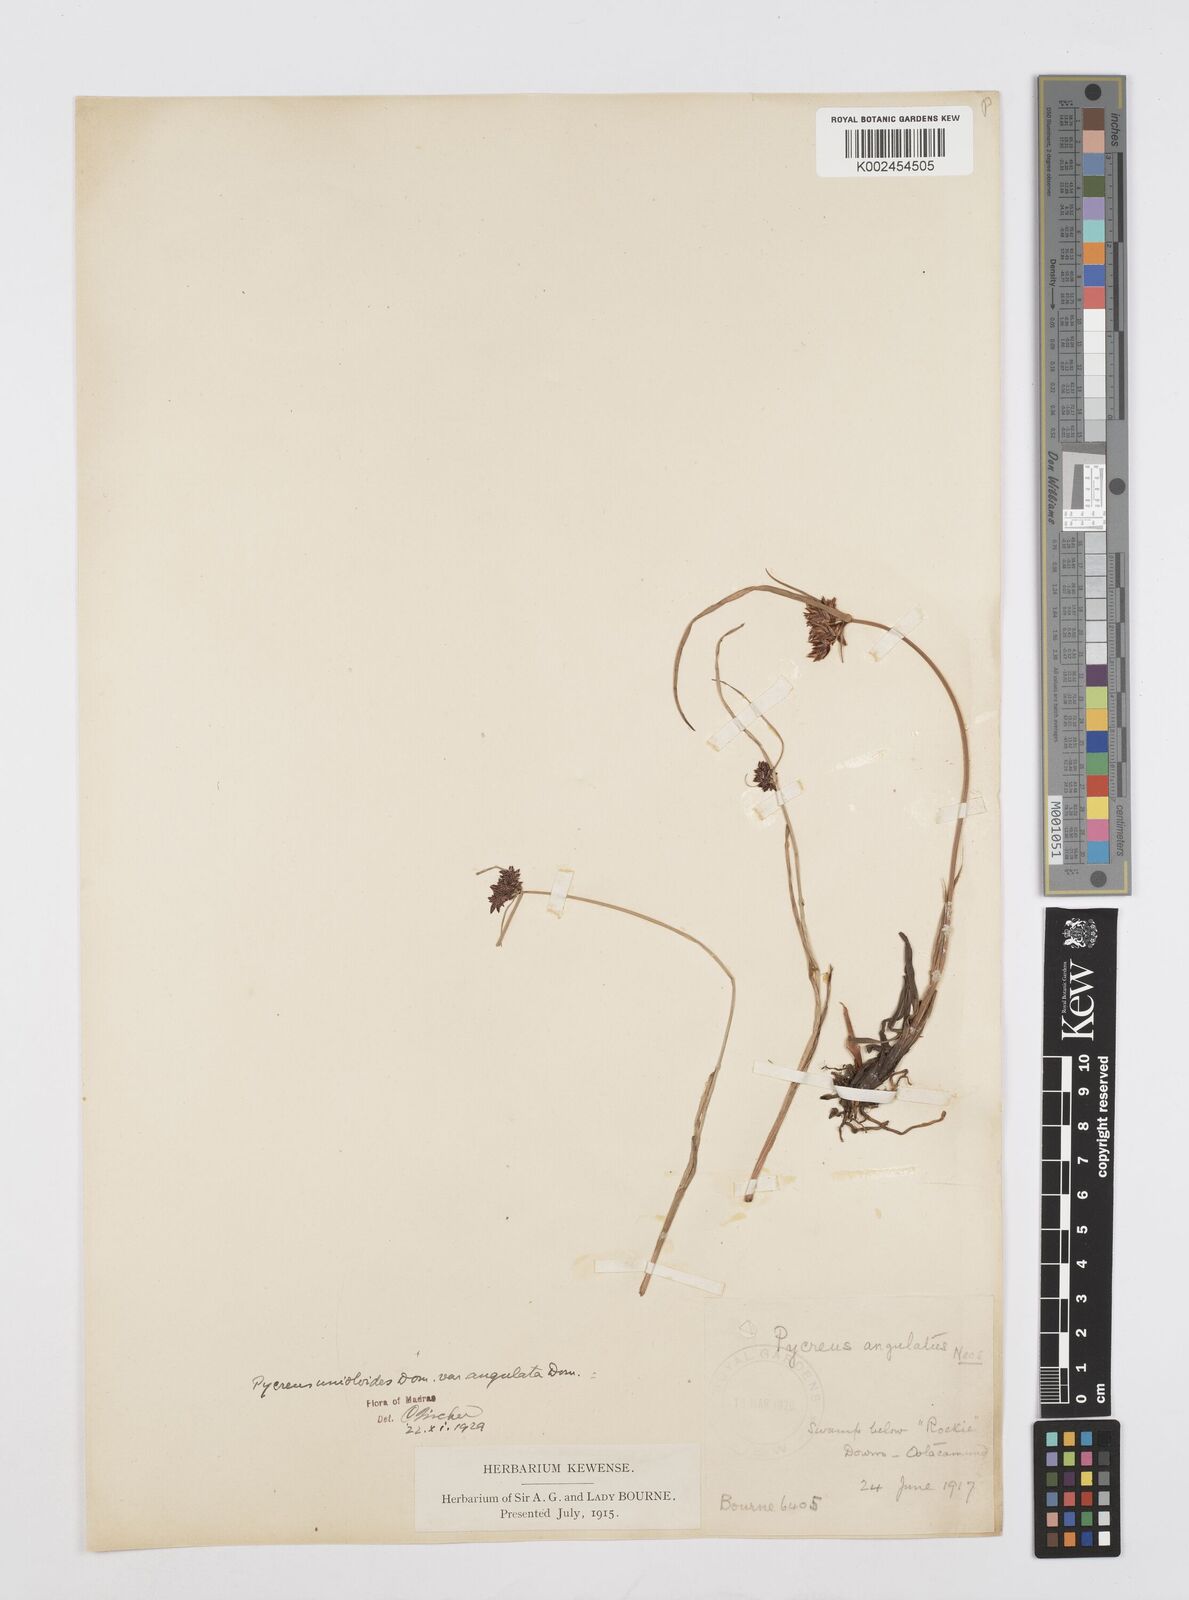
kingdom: Plantae
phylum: Tracheophyta
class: Liliopsida
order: Poales
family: Cyperaceae
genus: Cyperus
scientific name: Cyperus
